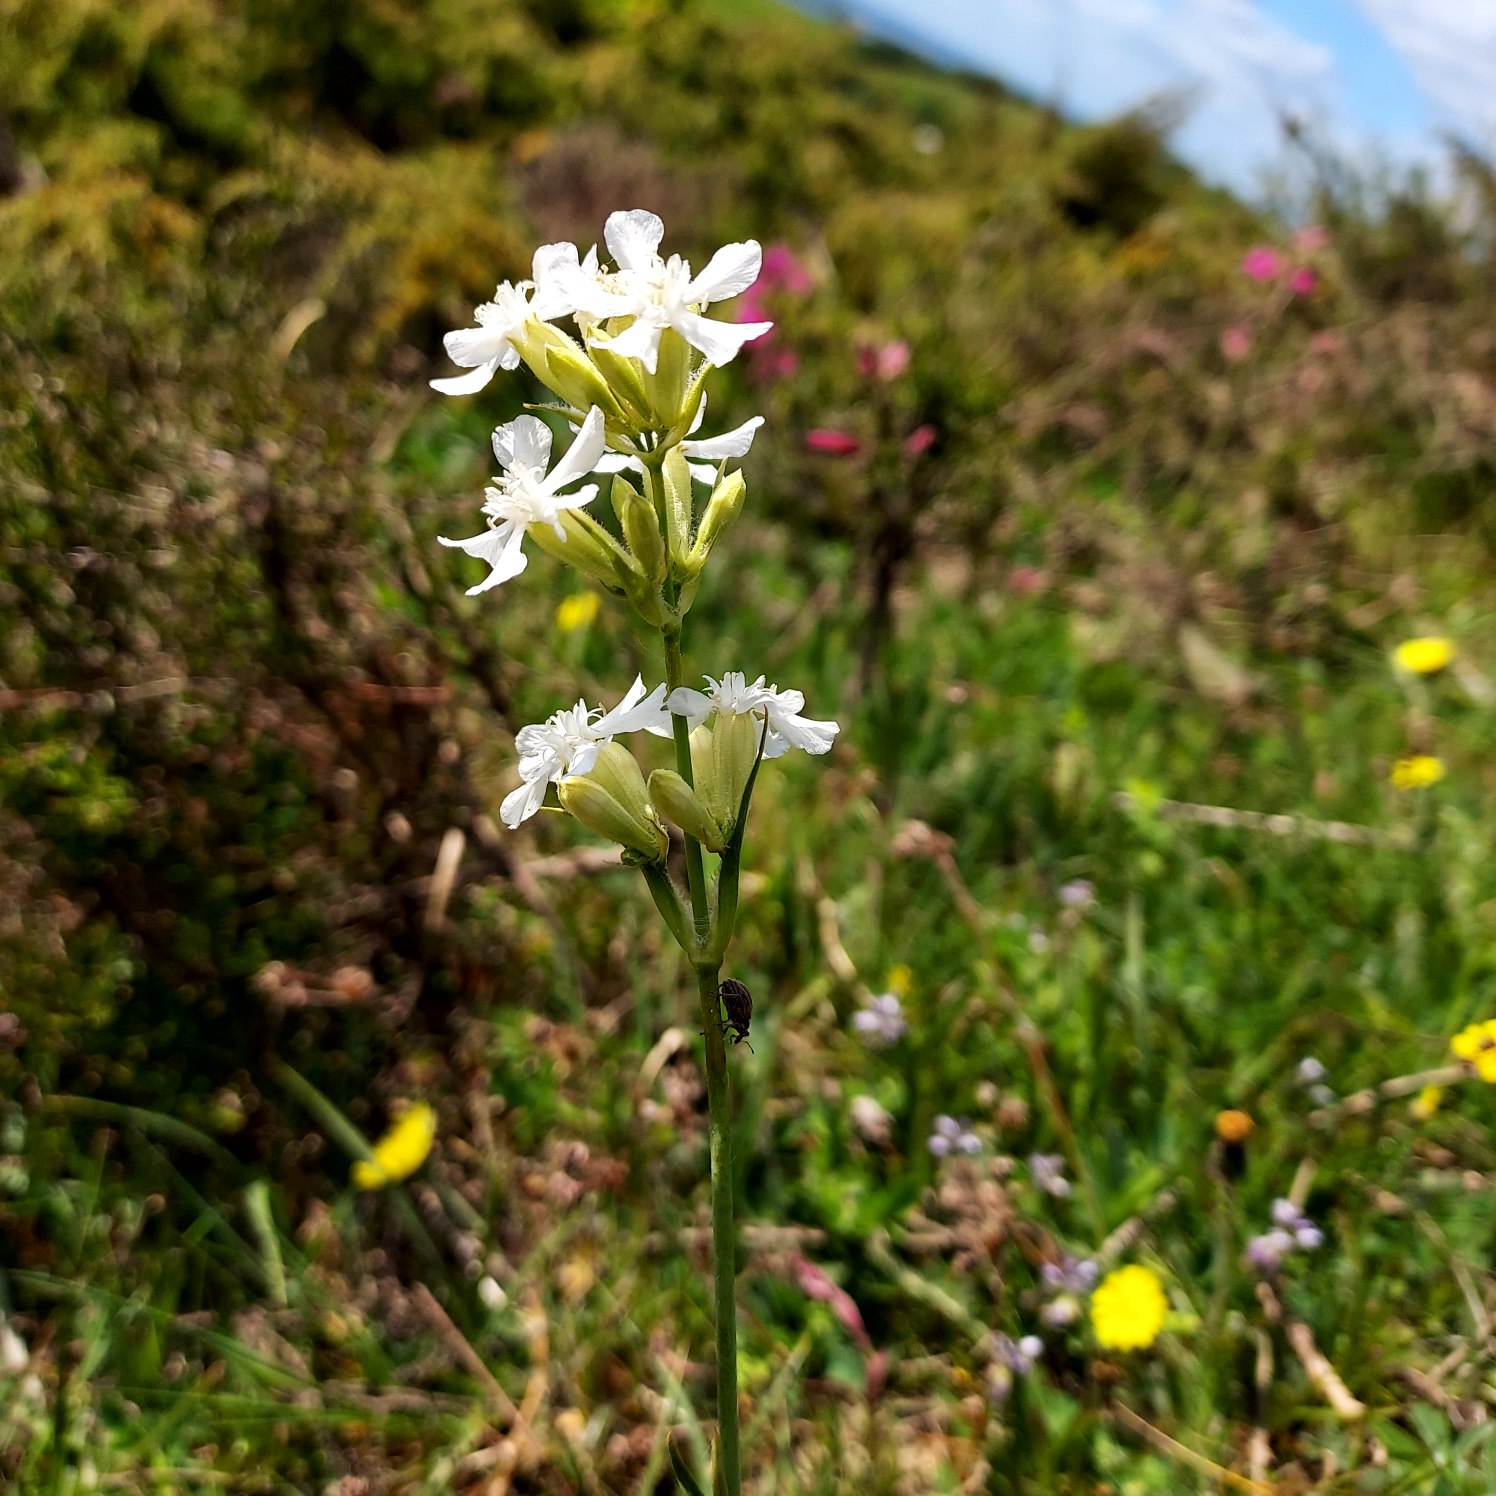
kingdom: Plantae
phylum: Tracheophyta
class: Magnoliopsida
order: Caryophyllales
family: Caryophyllaceae
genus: Viscaria
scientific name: Viscaria vulgaris
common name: Tjærenellike
